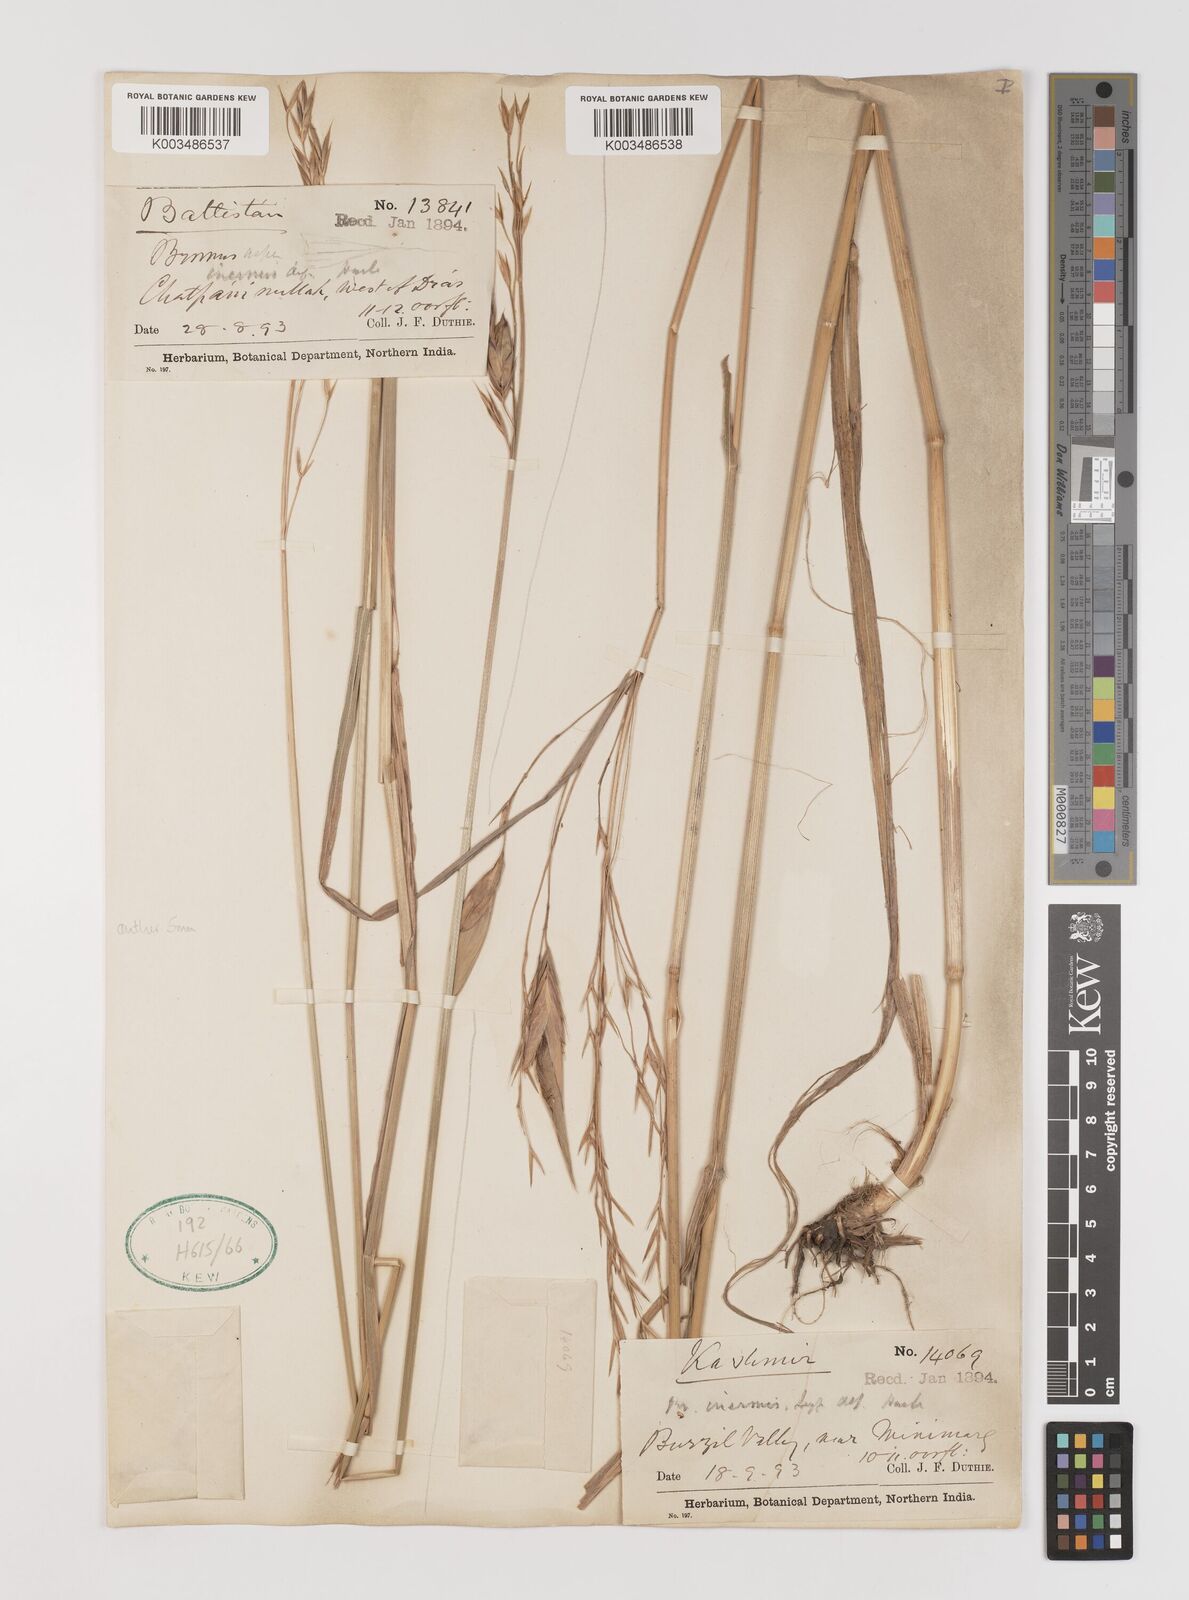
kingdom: Plantae
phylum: Tracheophyta
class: Liliopsida
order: Poales
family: Poaceae
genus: Bromus
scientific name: Bromus inermis
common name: Smooth brome
